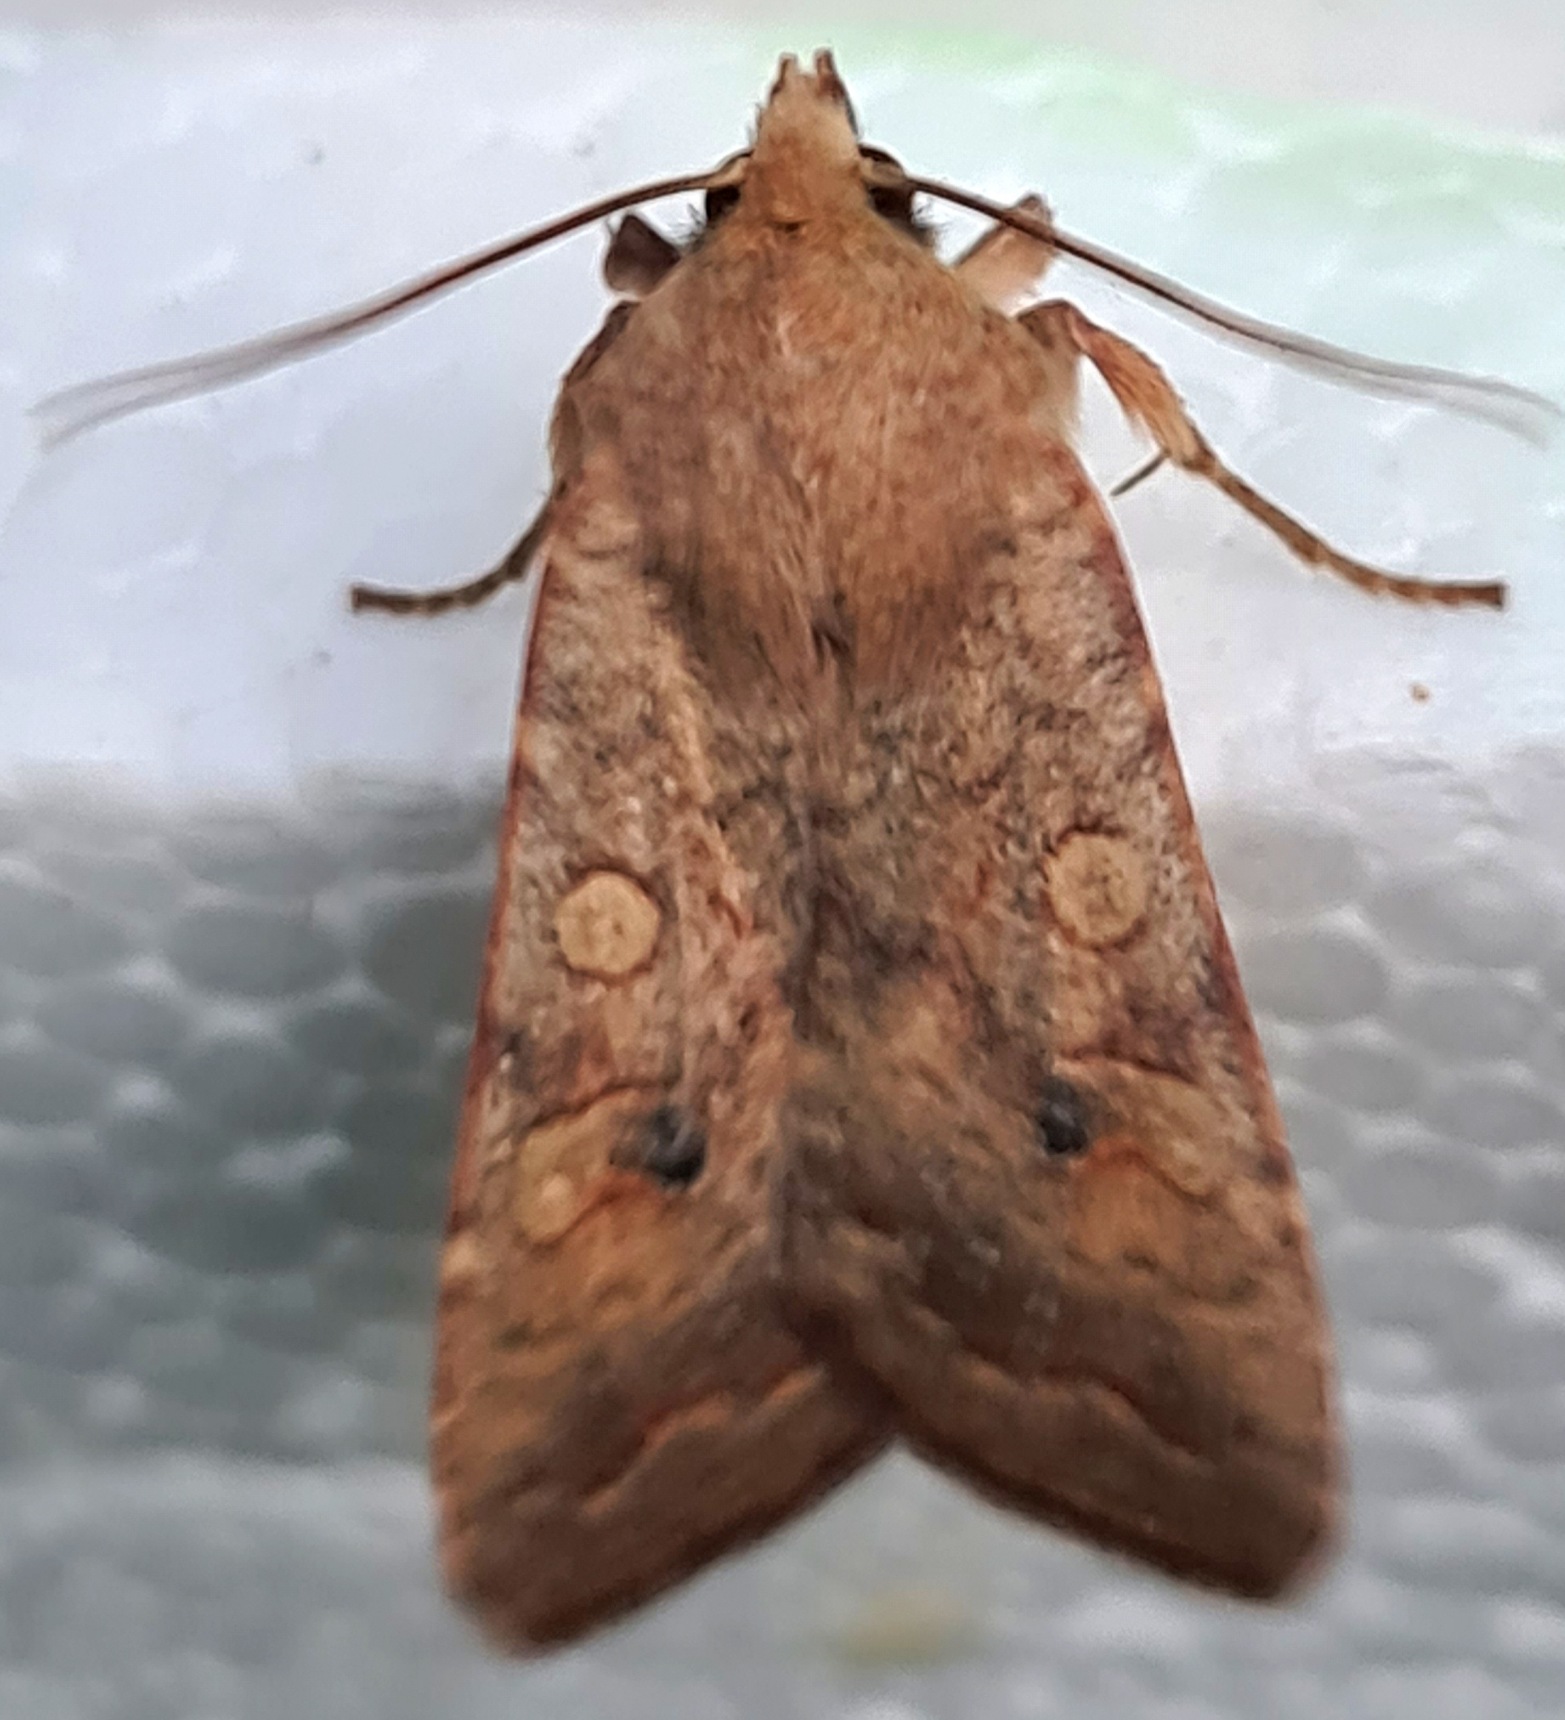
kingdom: Animalia
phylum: Arthropoda
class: Insecta
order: Lepidoptera
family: Noctuidae
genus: Sunira
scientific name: Sunira circellaris
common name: Cirkel-jordfarveugle
